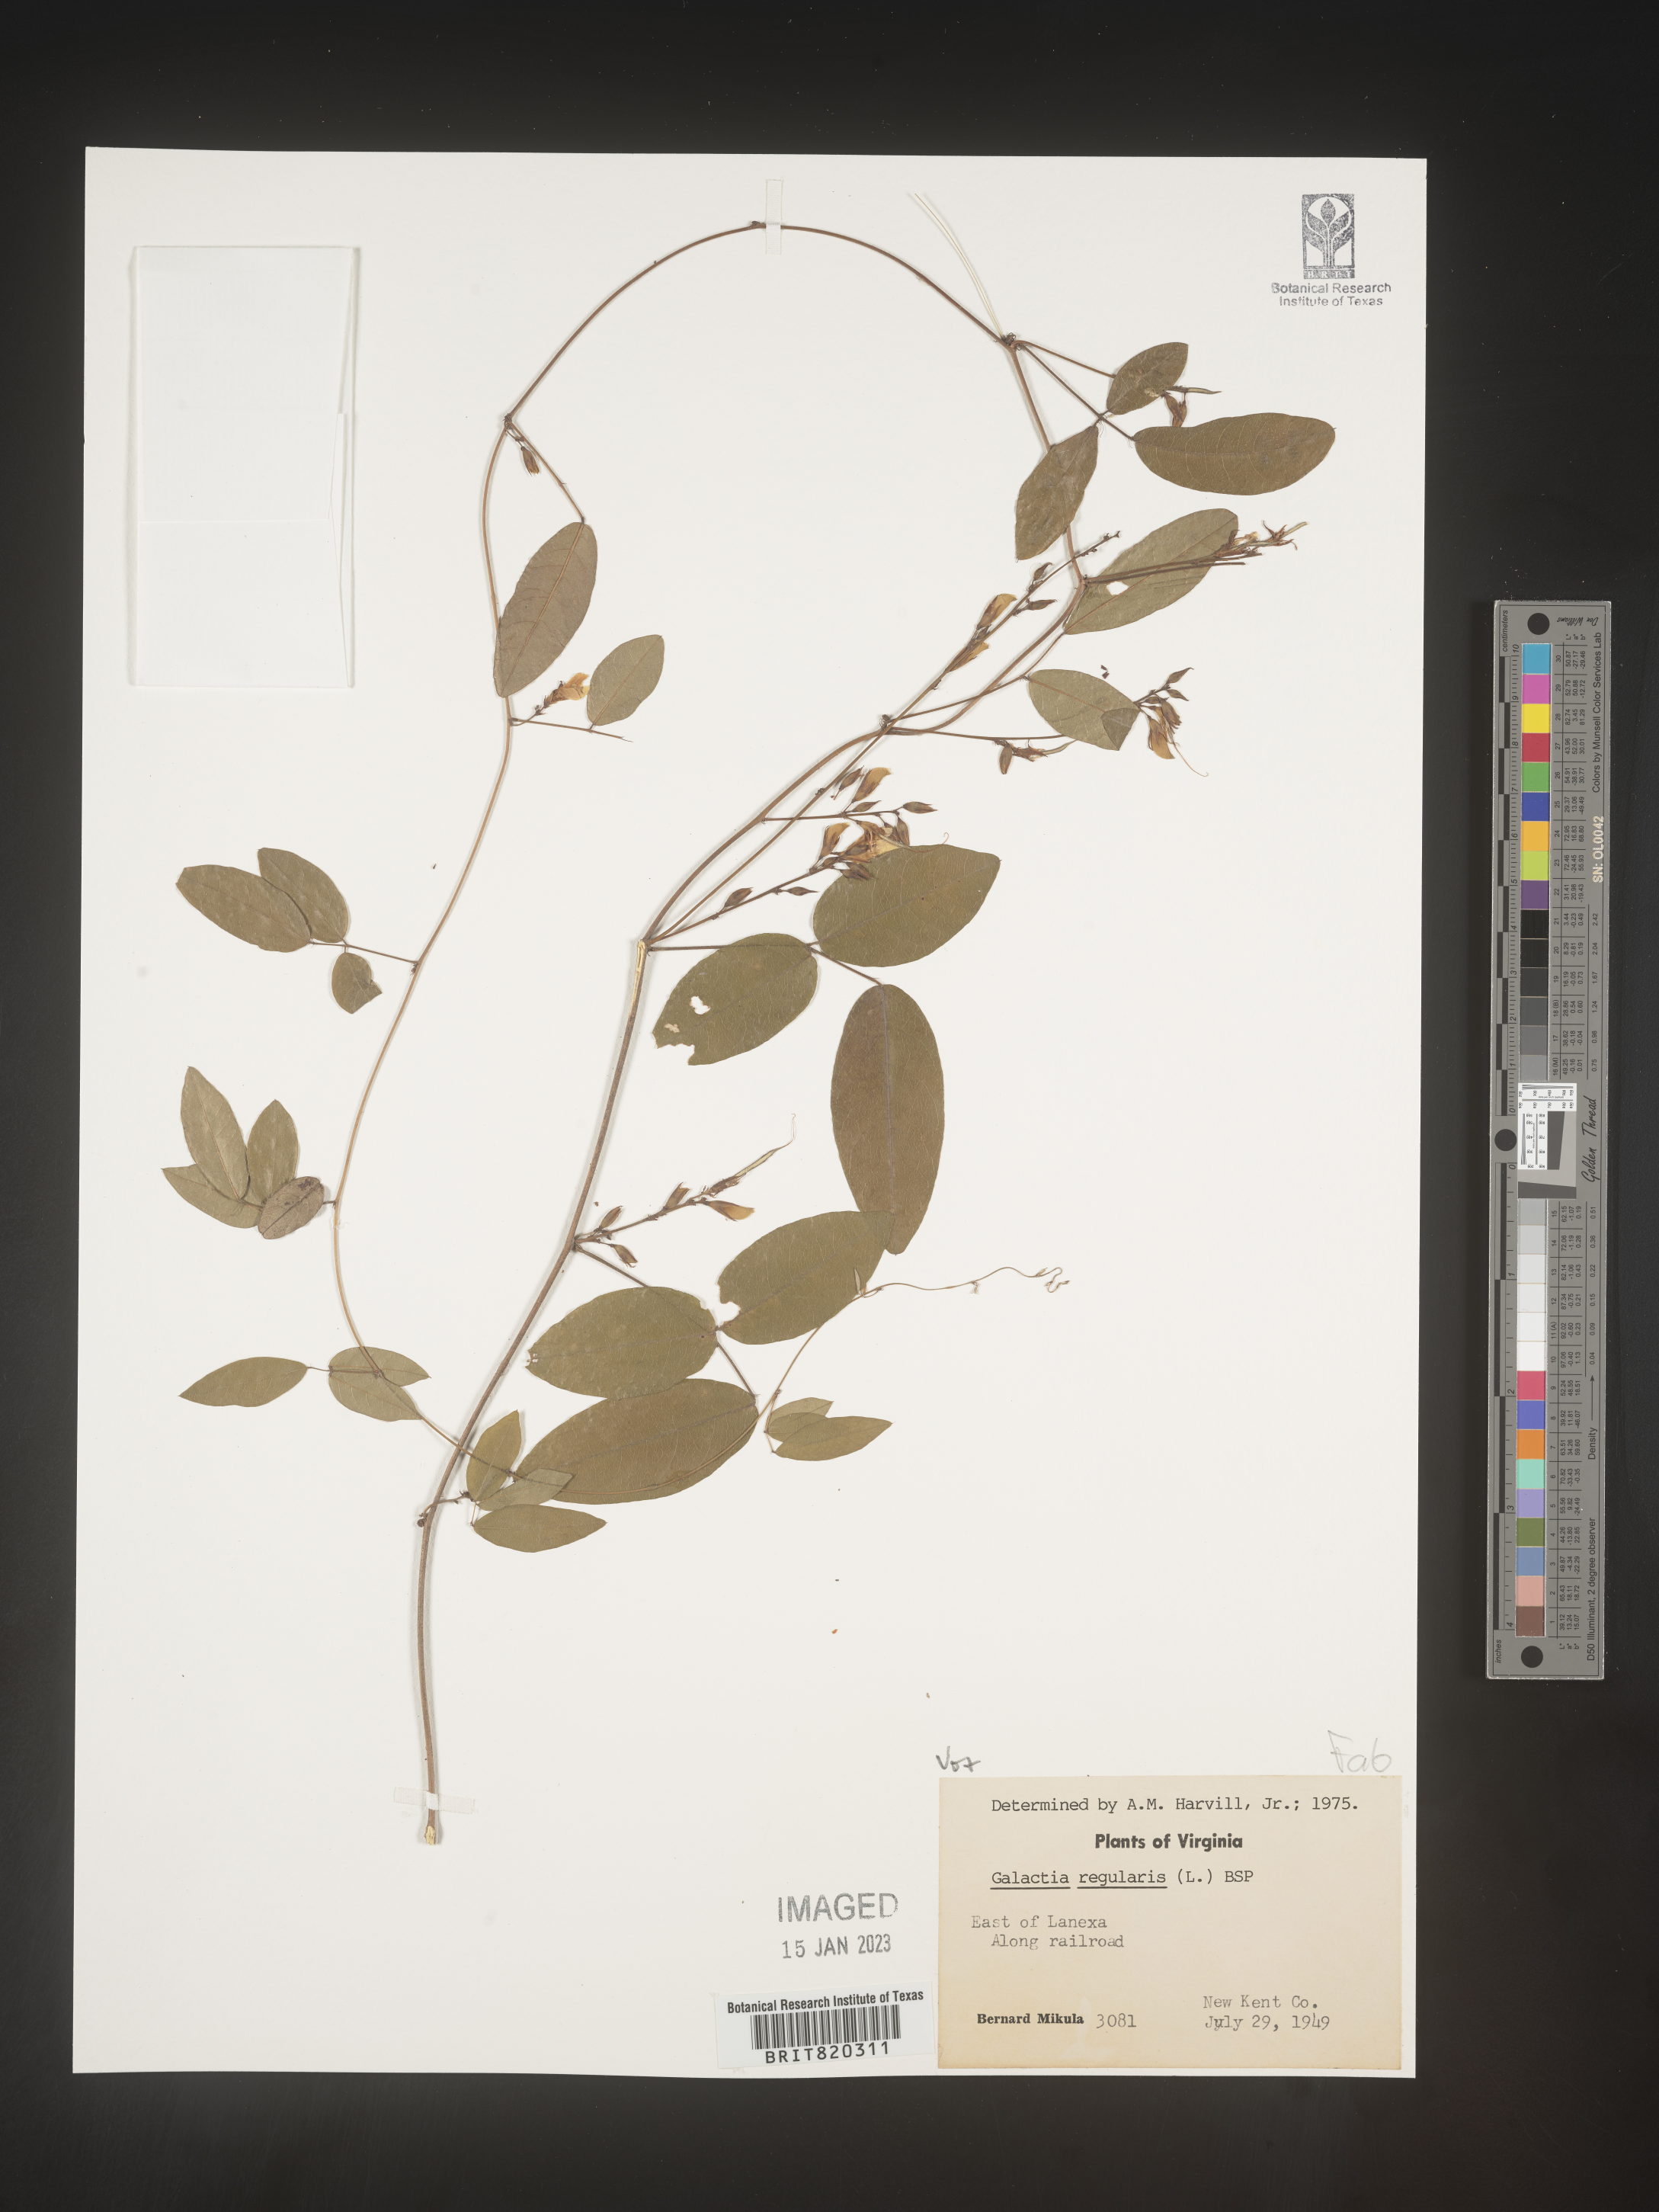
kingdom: Plantae
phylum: Tracheophyta
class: Magnoliopsida
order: Fabales
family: Fabaceae
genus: Galactia
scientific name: Galactia regularis
